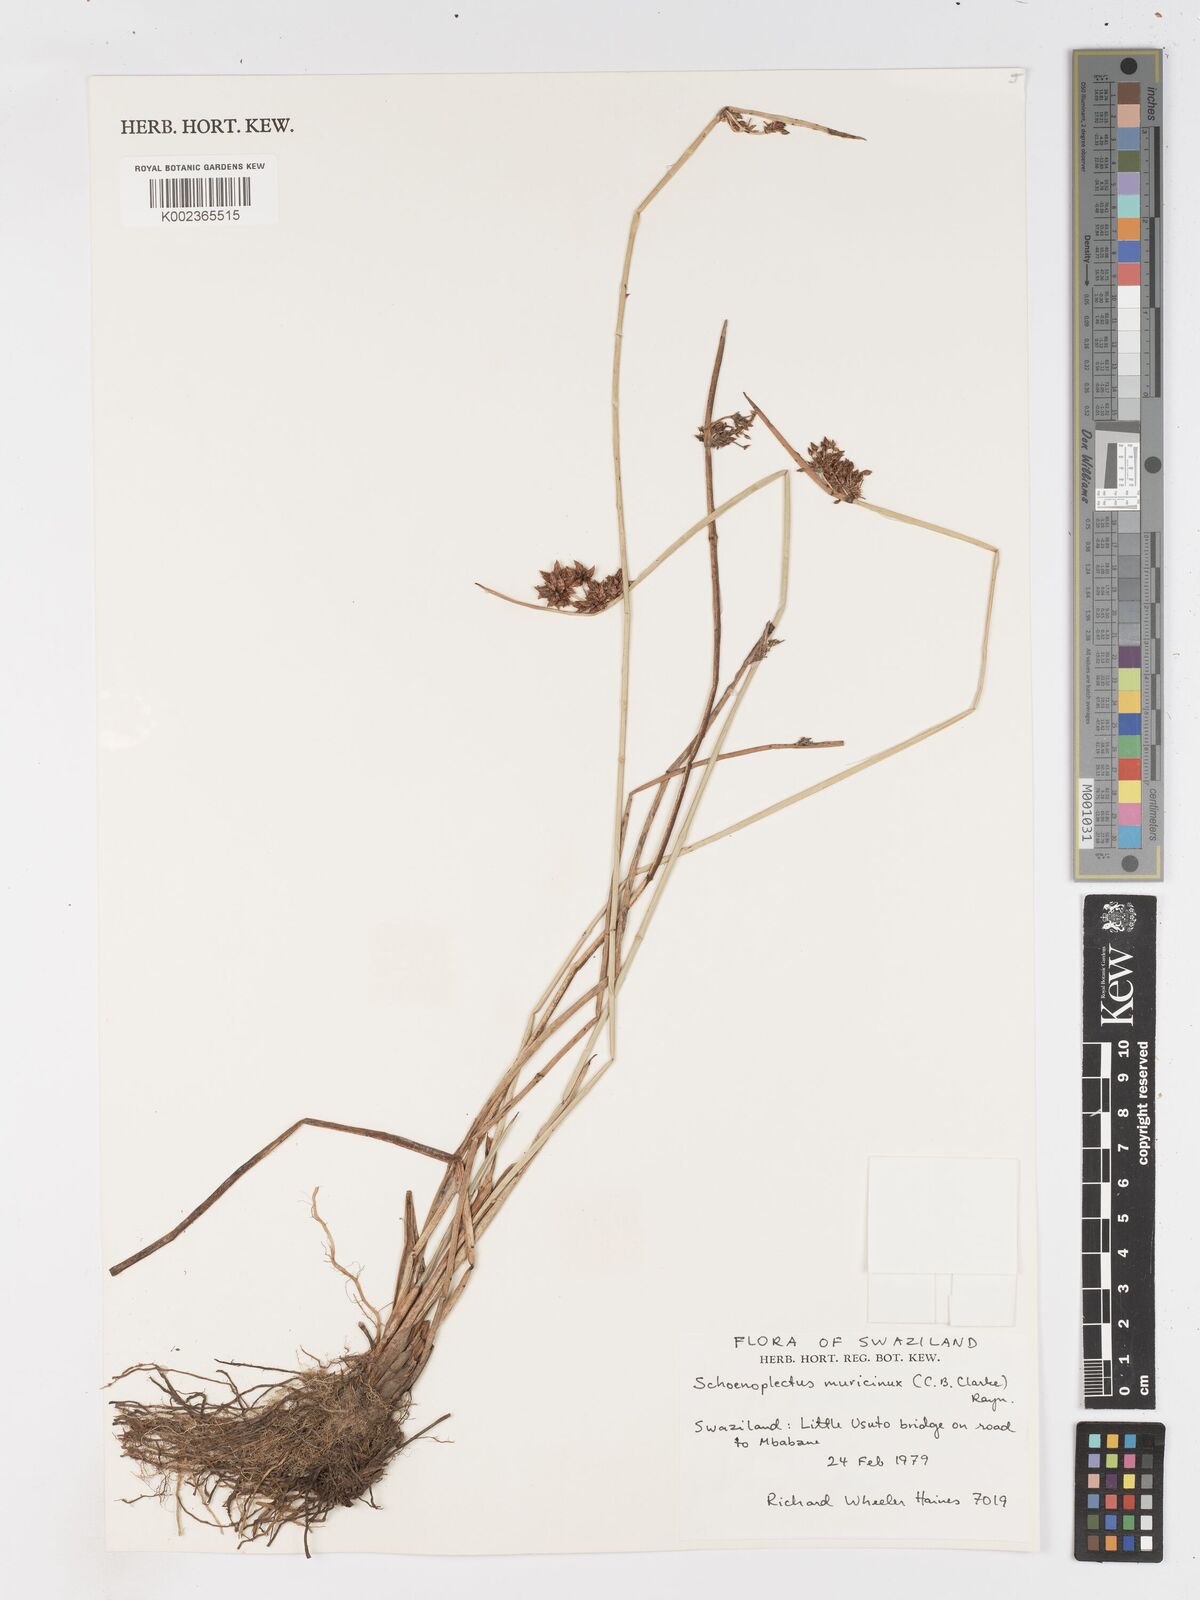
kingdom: Plantae
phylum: Tracheophyta
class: Liliopsida
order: Poales
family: Cyperaceae
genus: Schoenoplectiella
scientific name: Schoenoplectiella muricinux
